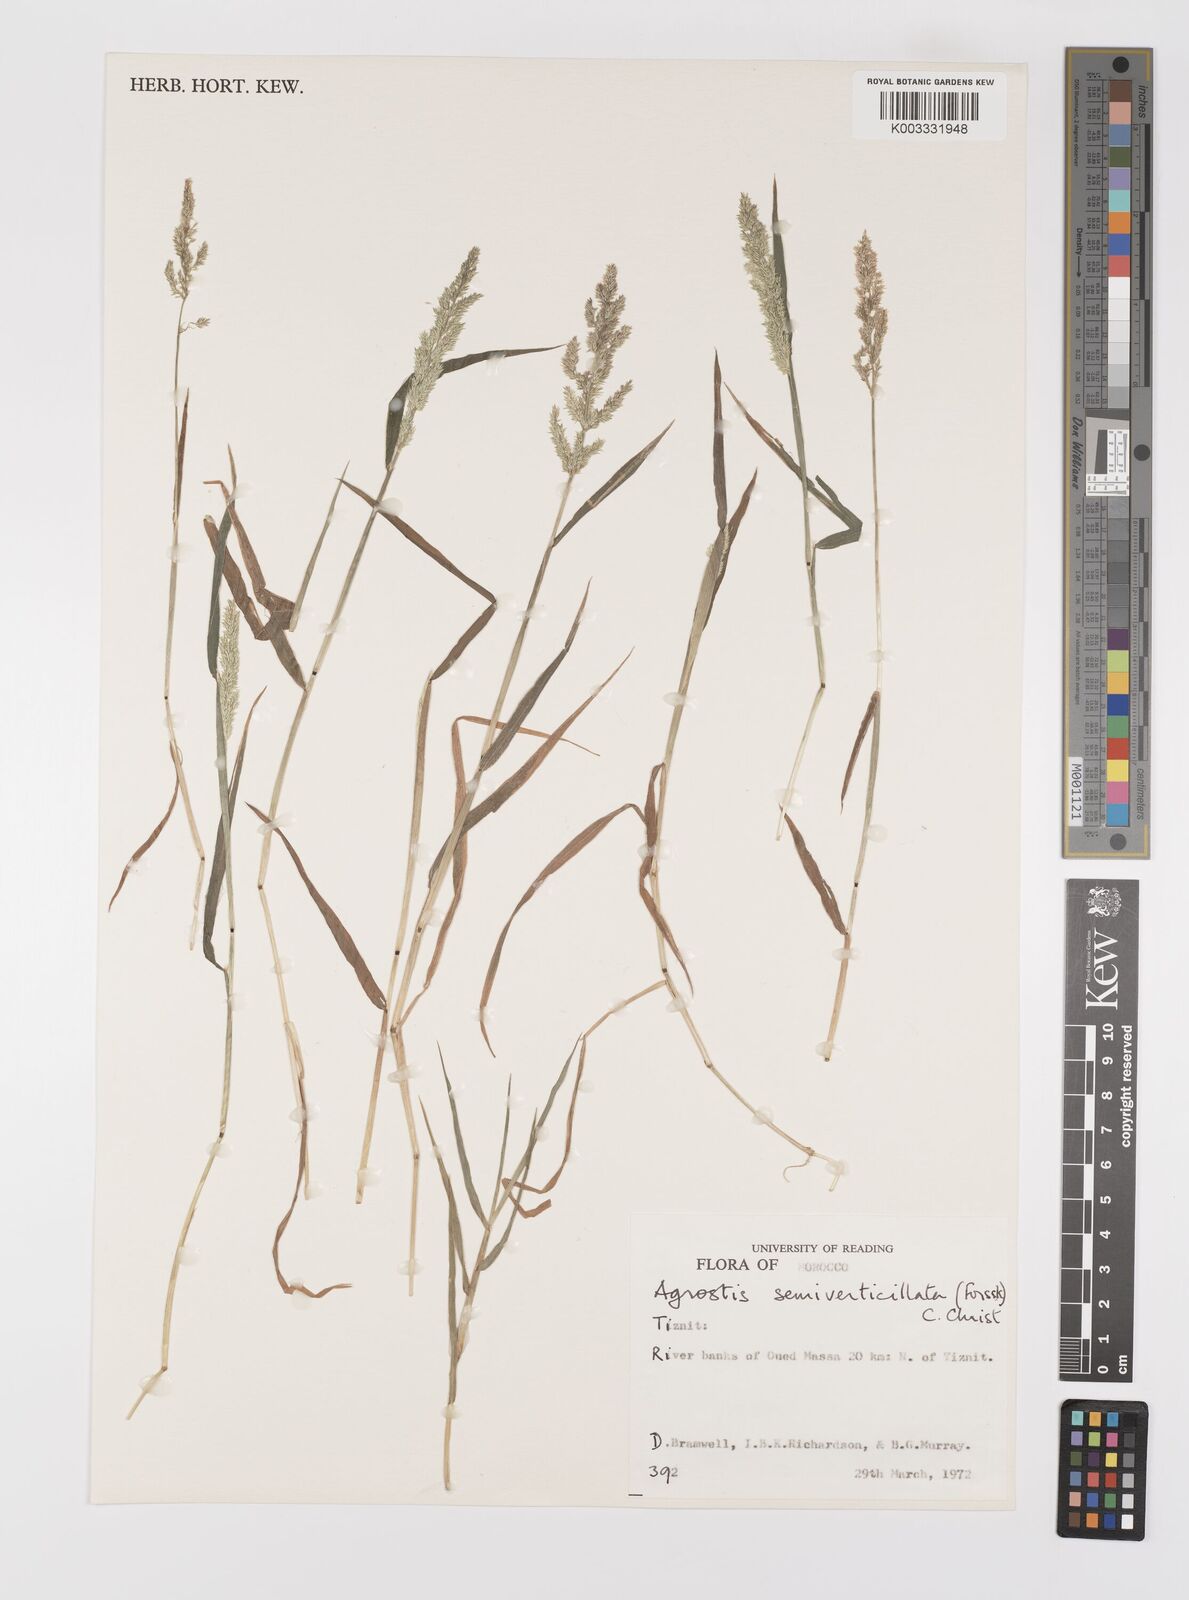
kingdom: Plantae
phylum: Tracheophyta
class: Liliopsida
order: Poales
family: Poaceae
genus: Polypogon
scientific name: Polypogon viridis
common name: Water bent
